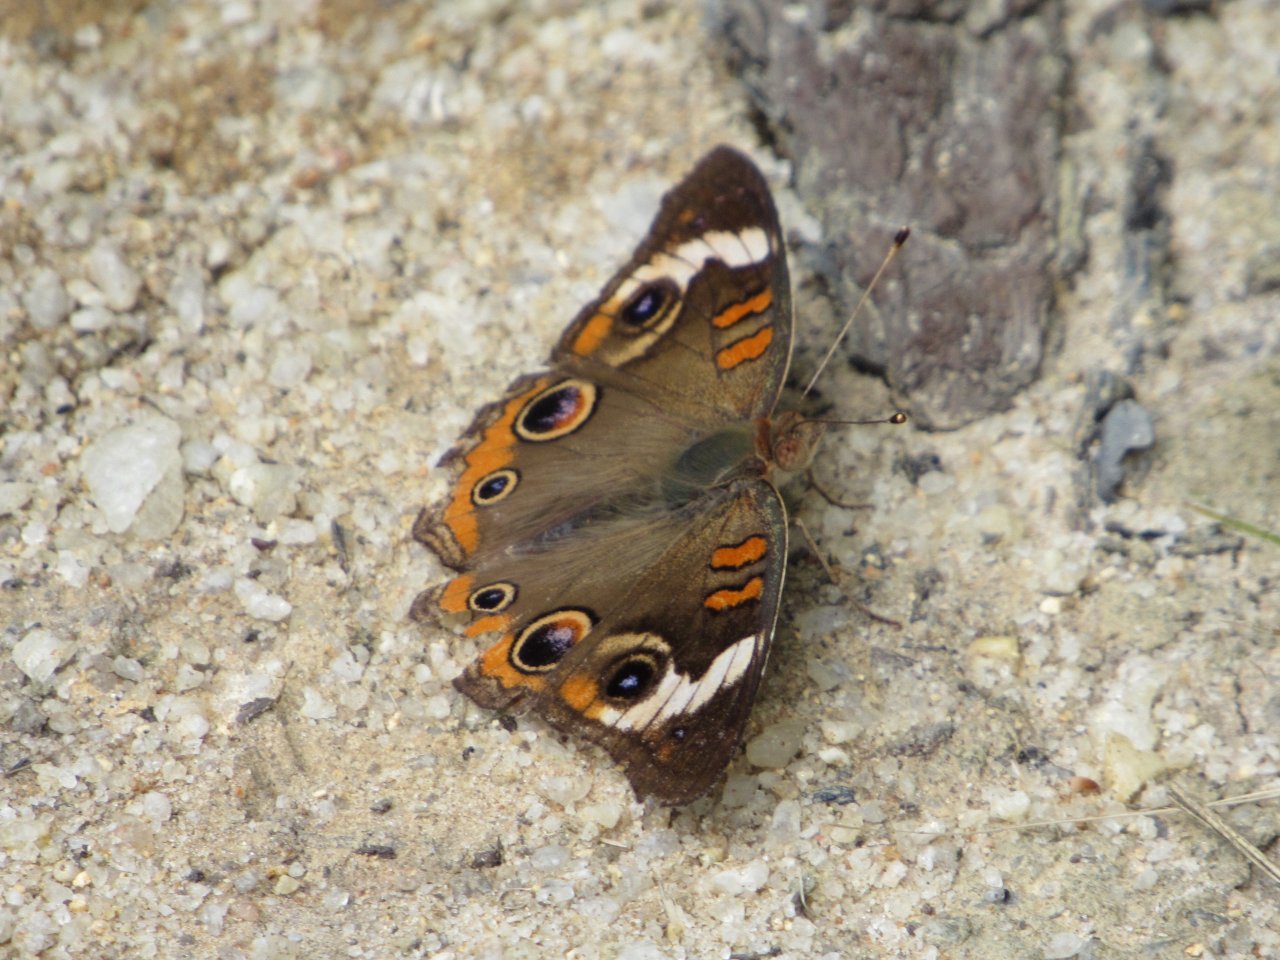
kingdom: Animalia
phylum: Arthropoda
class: Insecta
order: Lepidoptera
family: Nymphalidae
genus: Junonia
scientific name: Junonia coenia
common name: Common Buckeye
